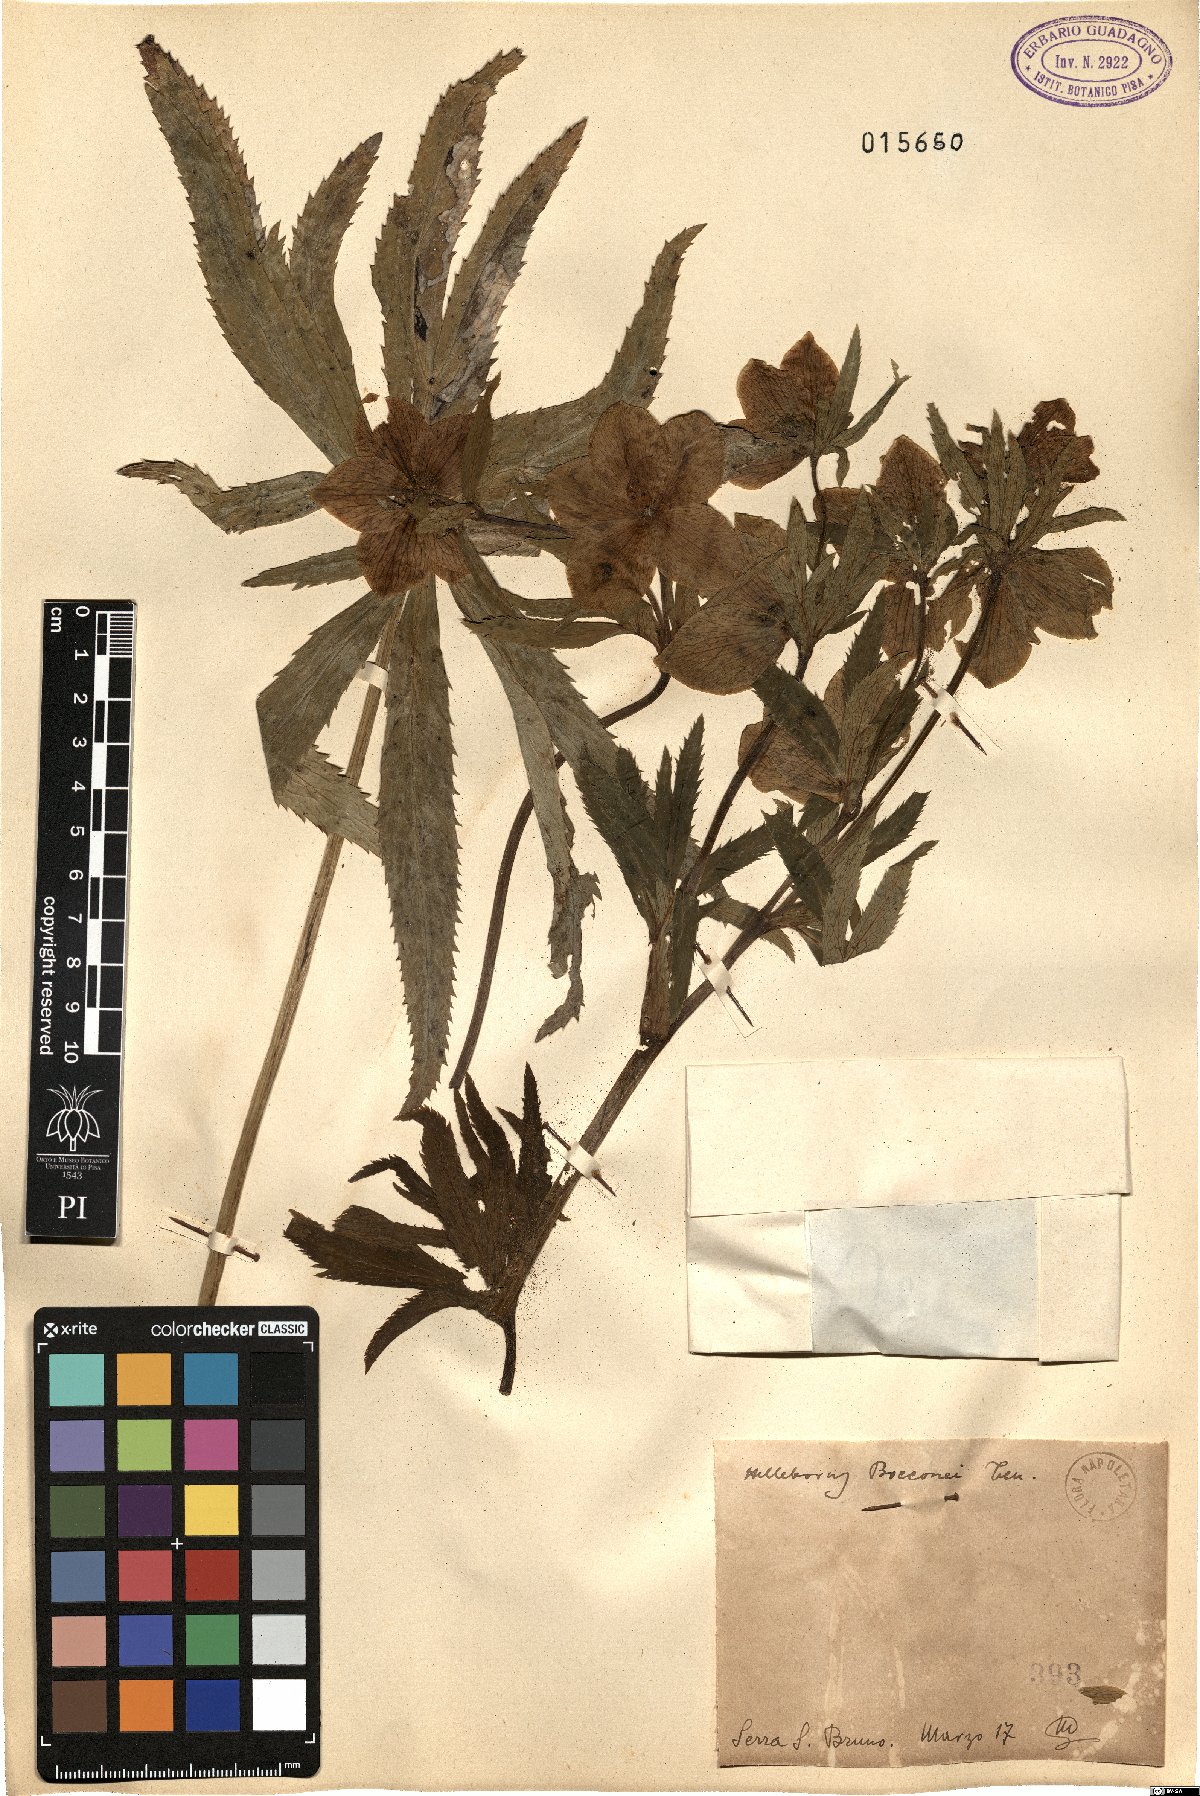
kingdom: Plantae
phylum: Tracheophyta
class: Magnoliopsida
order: Ranunculales
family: Ranunculaceae
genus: Helleborus
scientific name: Helleborus bocconei
